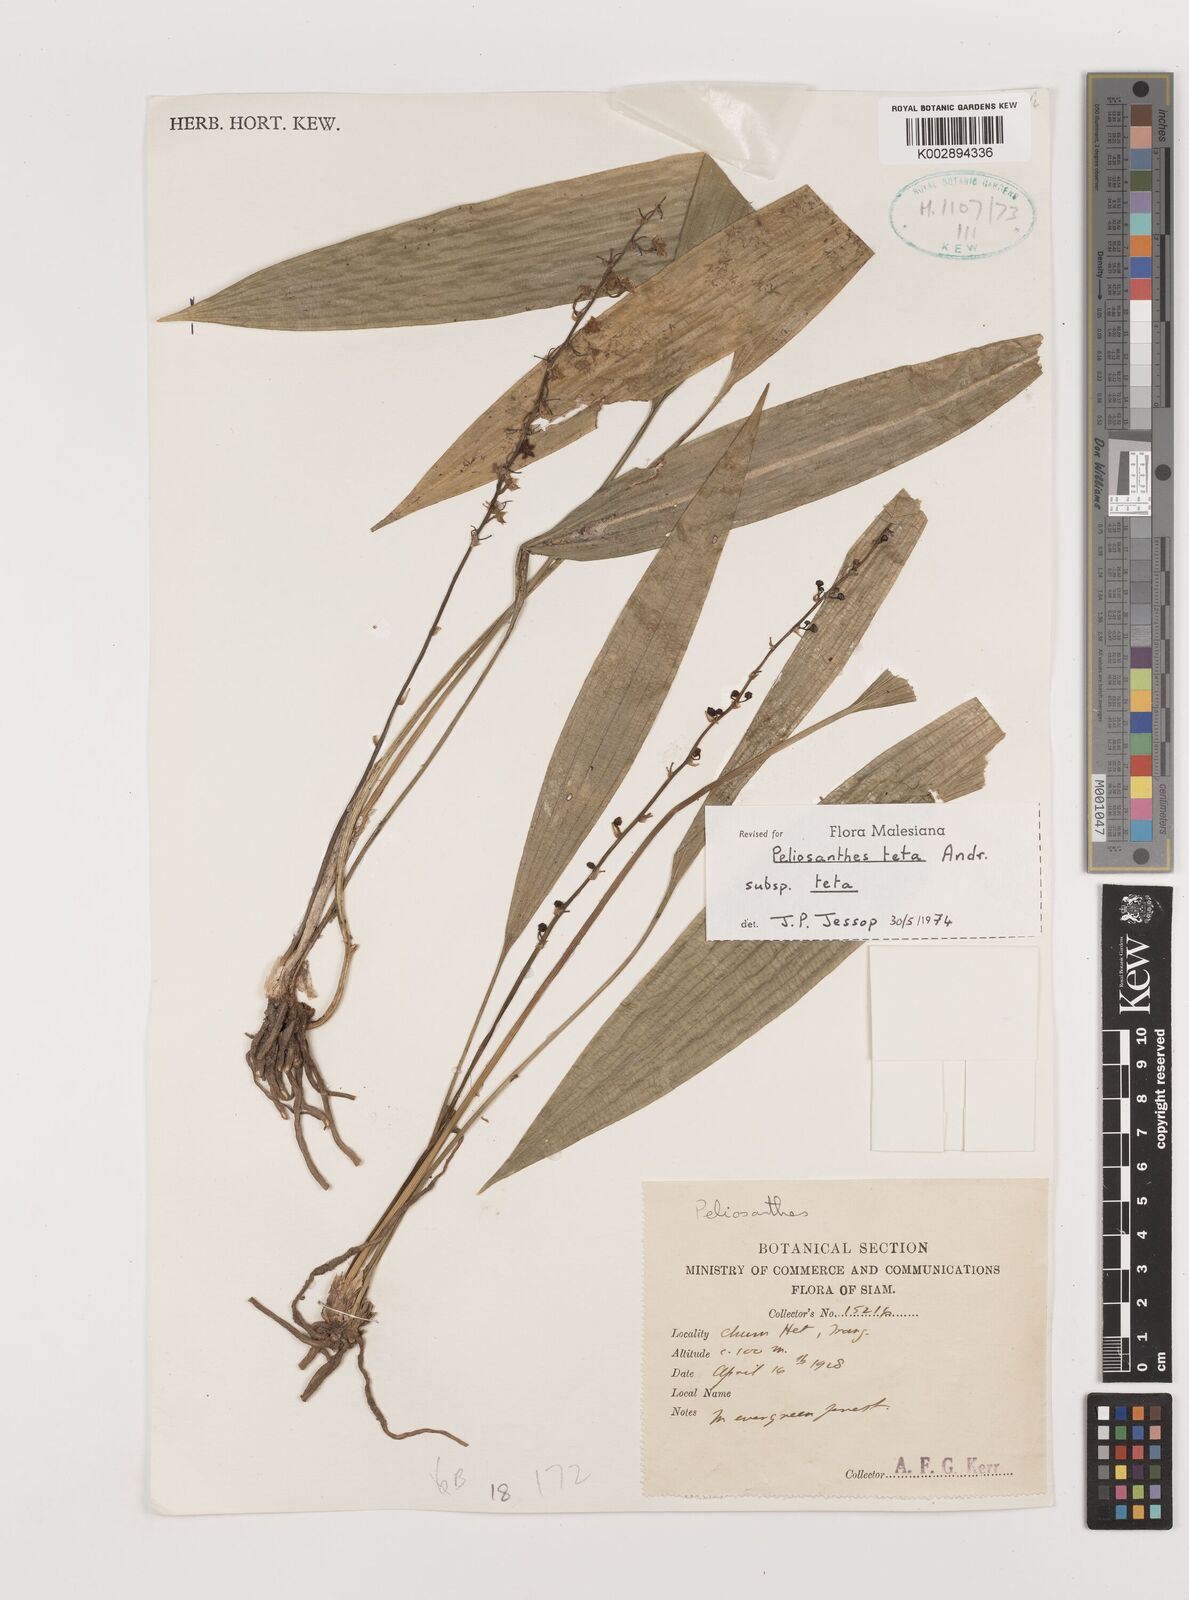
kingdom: Plantae
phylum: Tracheophyta
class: Liliopsida
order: Asparagales
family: Asparagaceae
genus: Peliosanthes
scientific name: Peliosanthes teta
